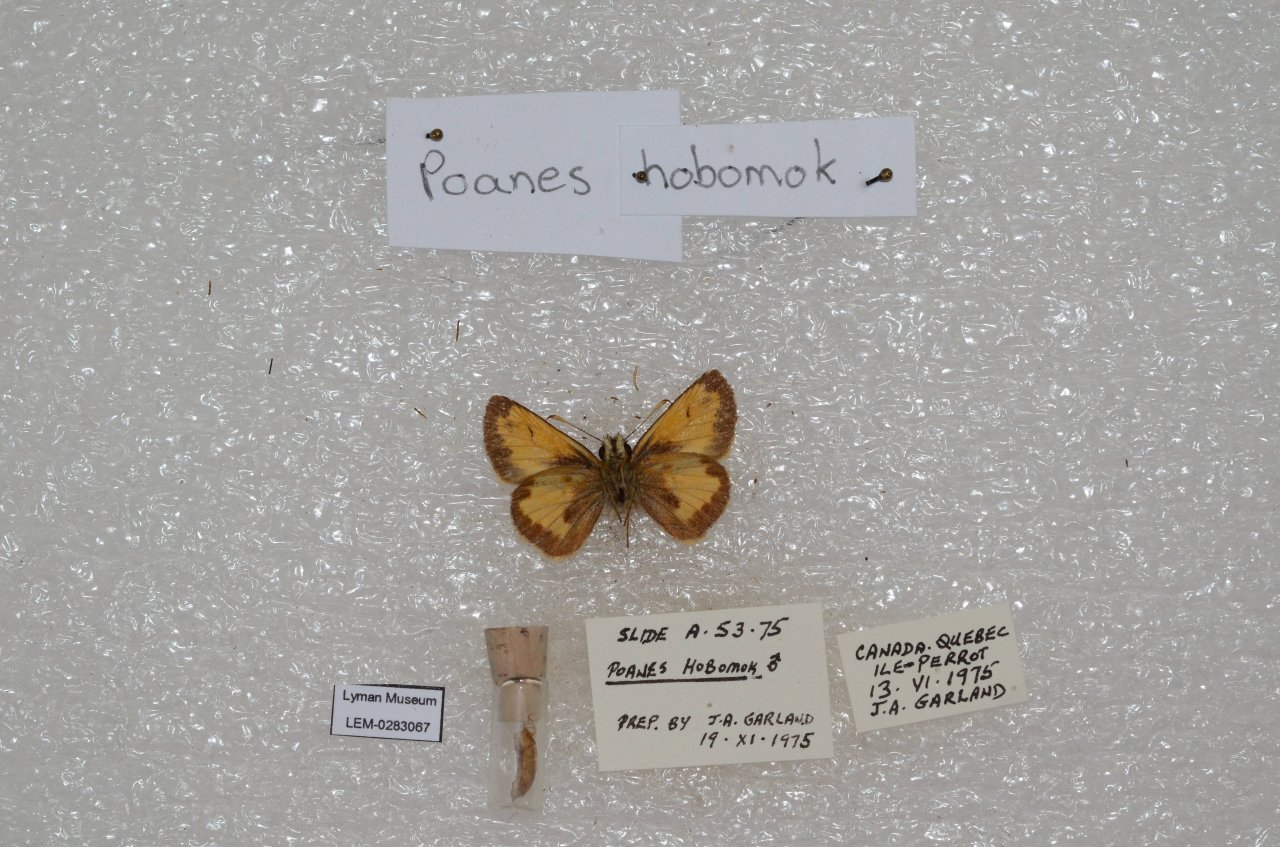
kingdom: Animalia
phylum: Arthropoda
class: Insecta
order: Lepidoptera
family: Hesperiidae
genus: Lon
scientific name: Lon hobomok
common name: Hobomok Skipper
